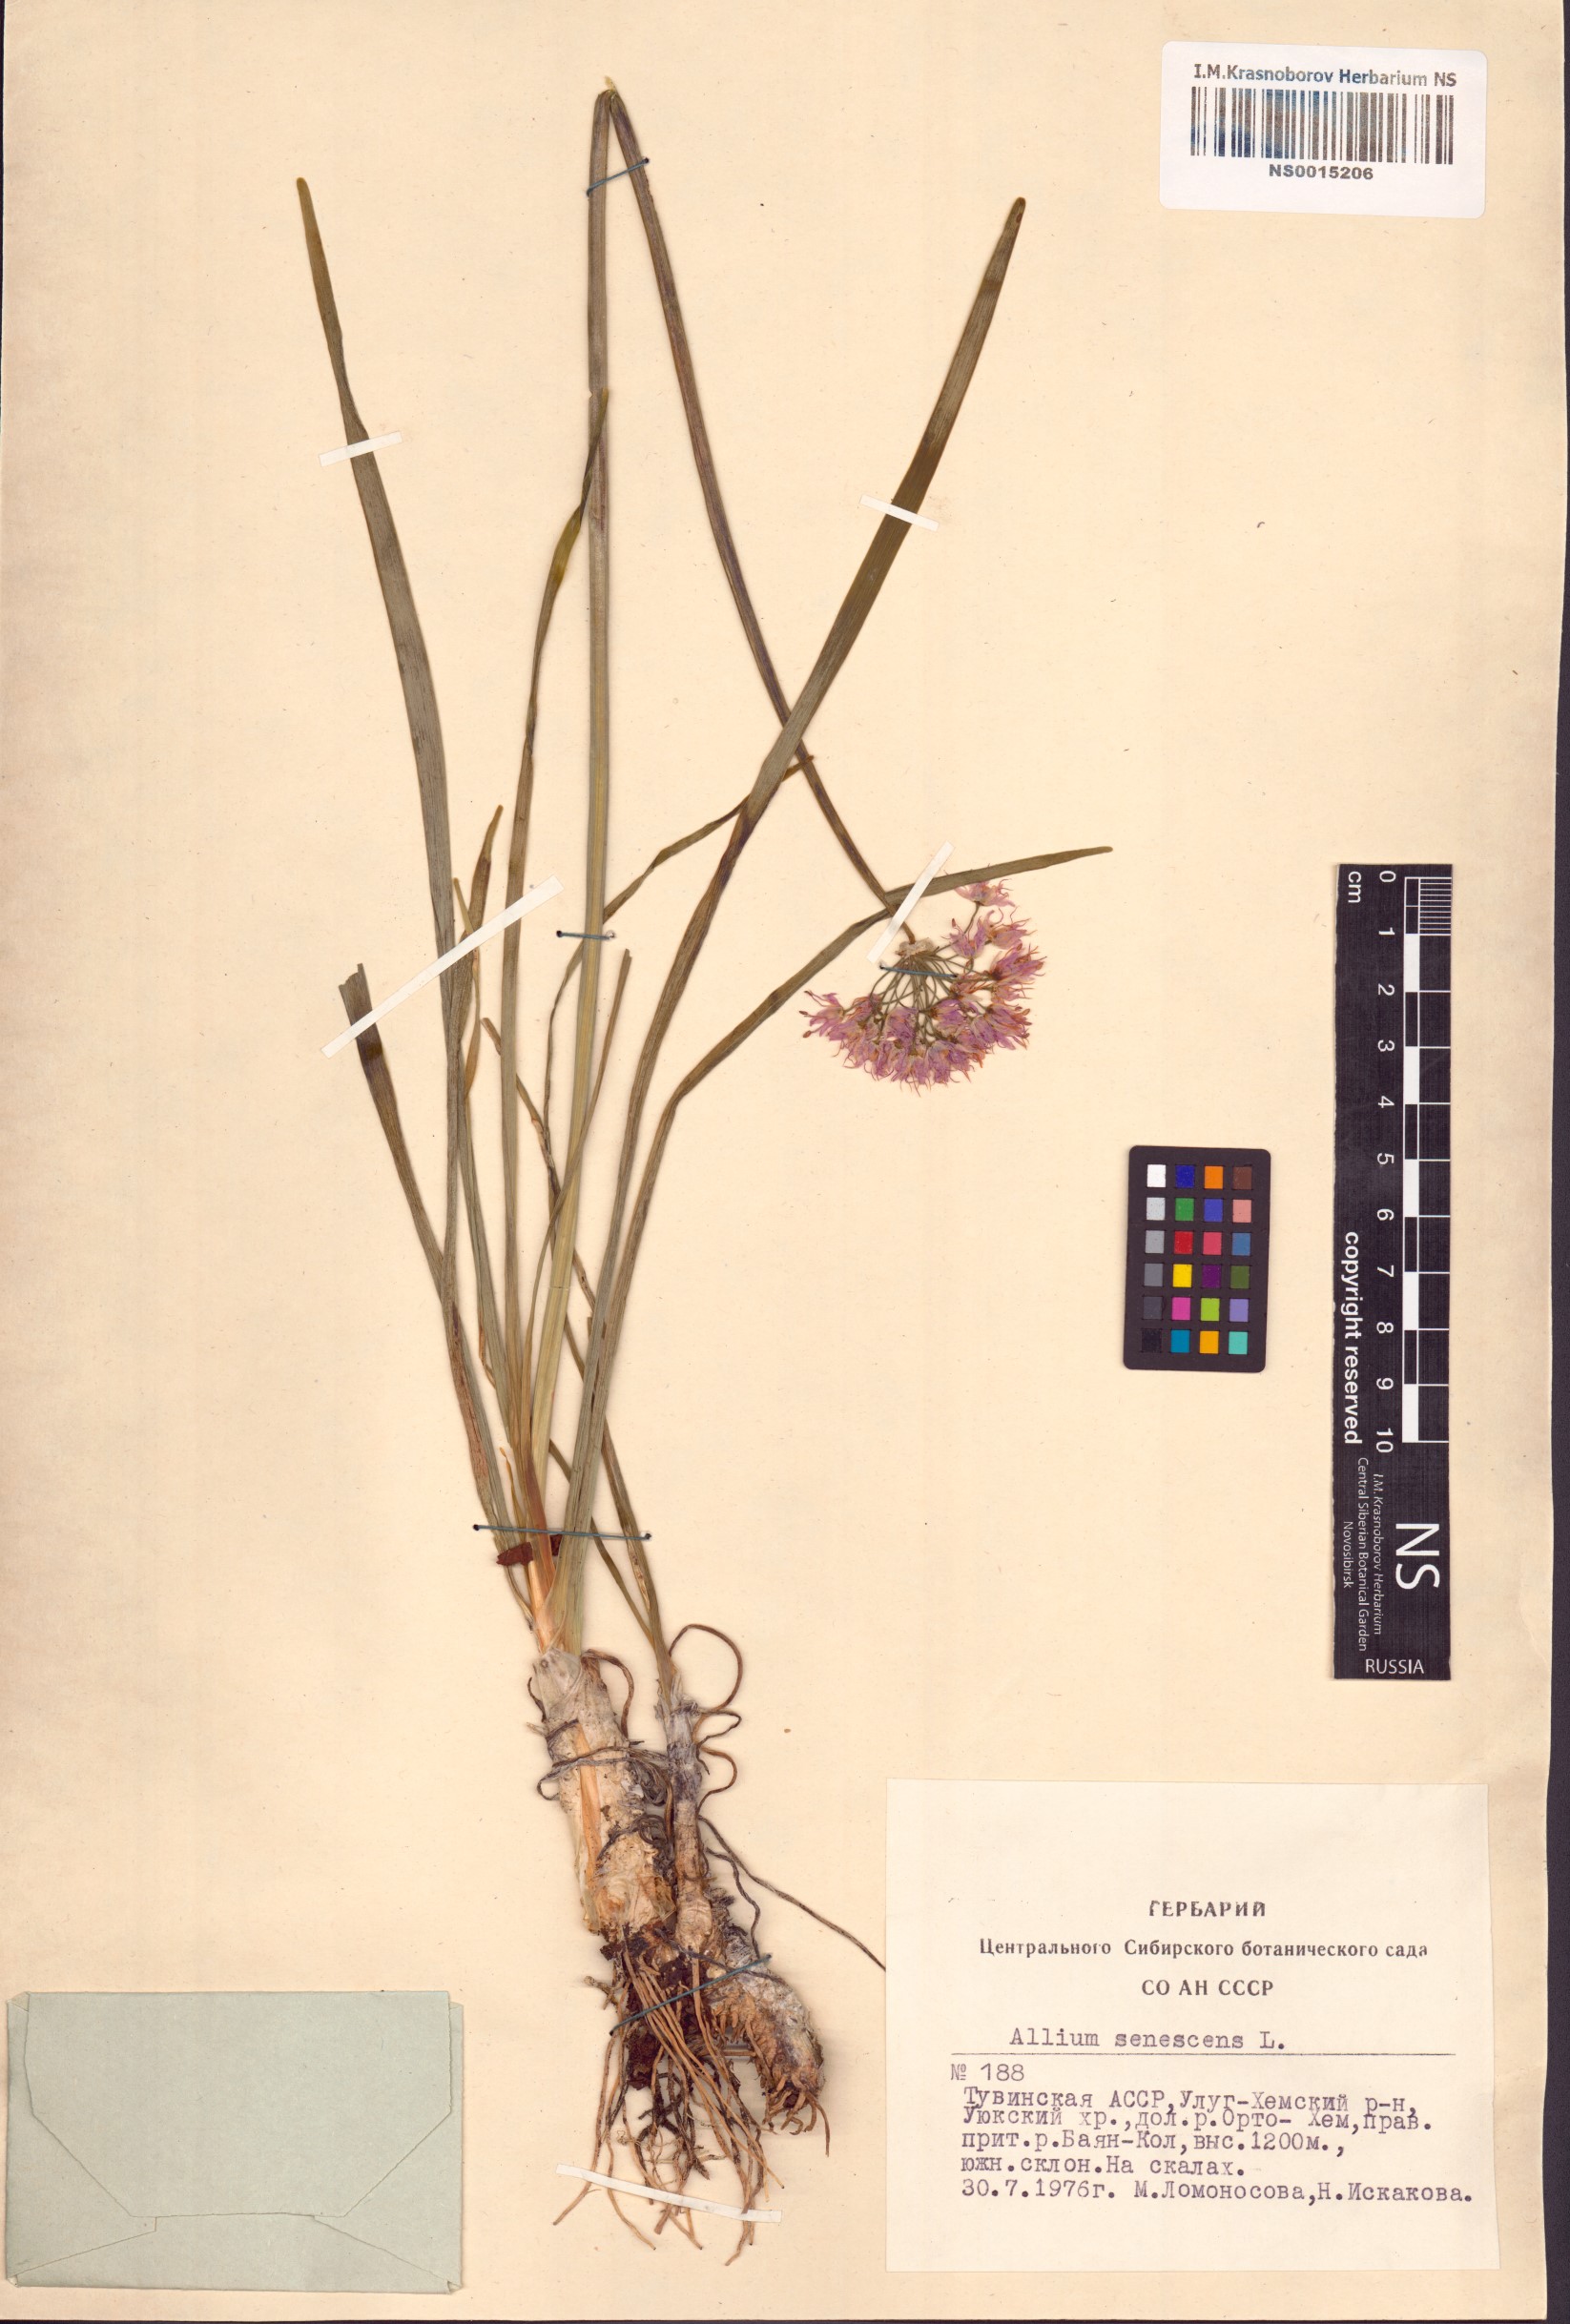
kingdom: Plantae
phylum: Tracheophyta
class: Liliopsida
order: Asparagales
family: Amaryllidaceae
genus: Allium
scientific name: Allium senescens
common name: German garlic
